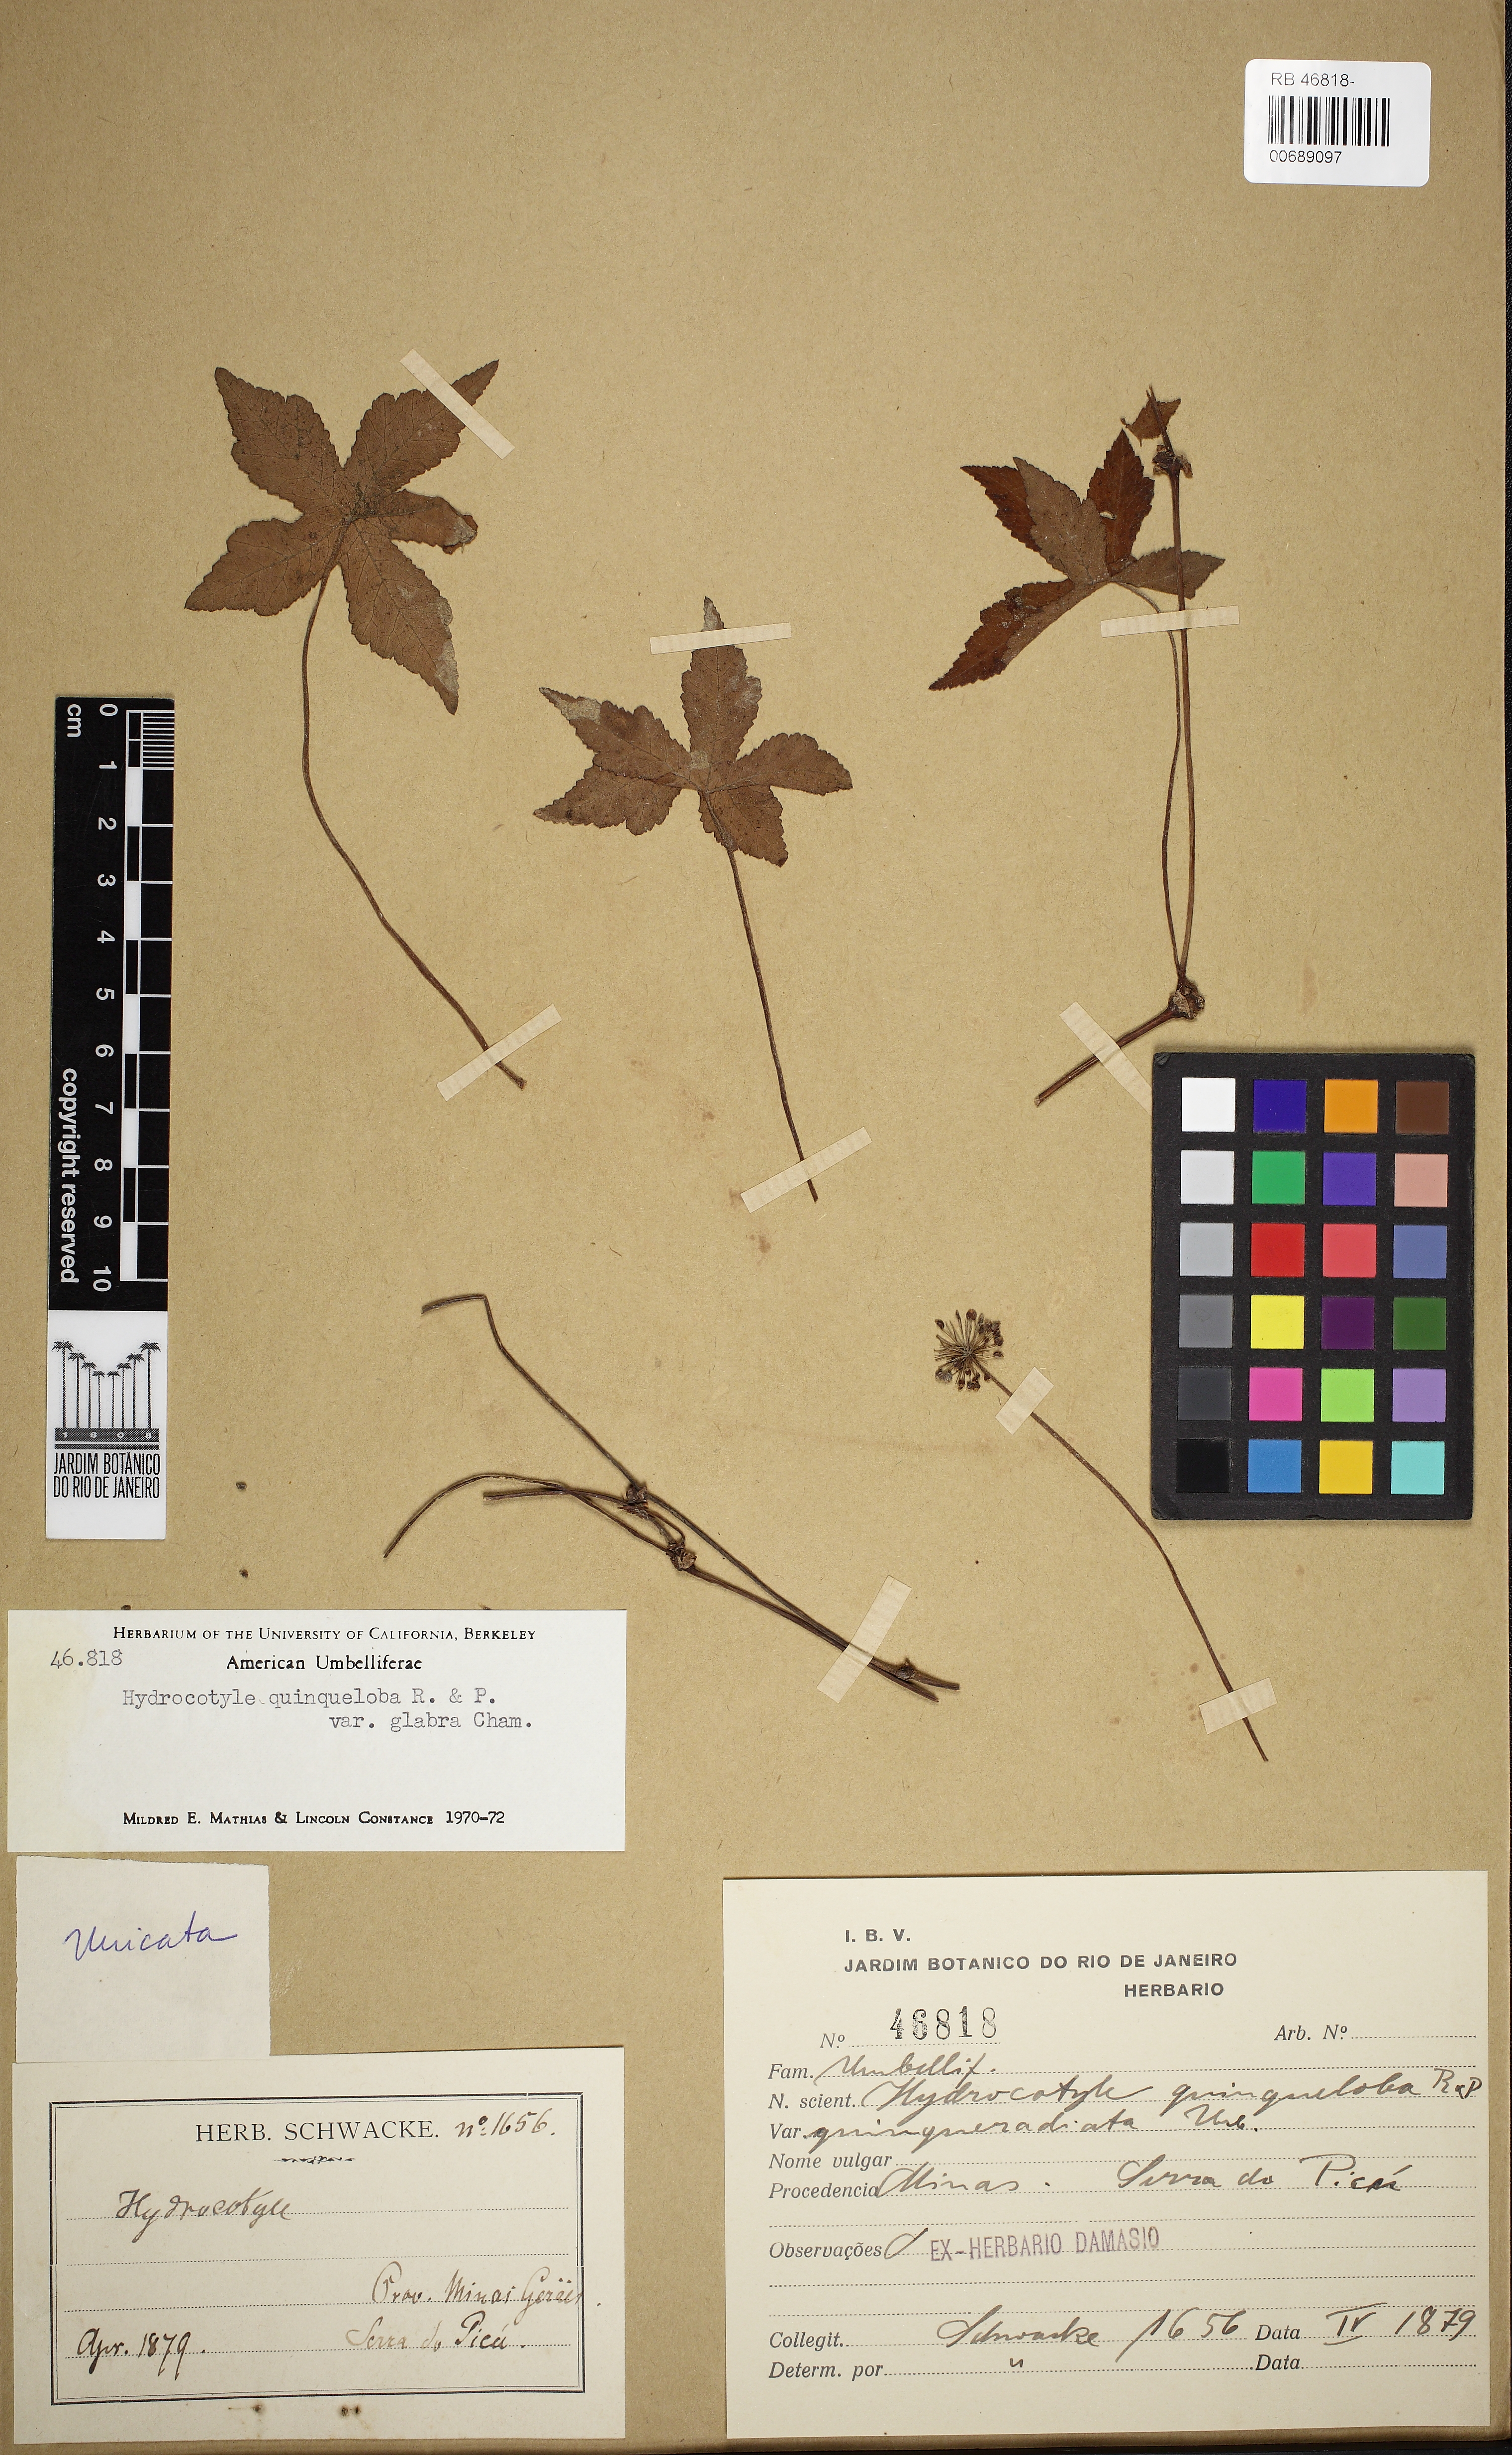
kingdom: Plantae
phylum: Tracheophyta
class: Magnoliopsida
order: Apiales
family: Araliaceae
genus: Hydrocotyle
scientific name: Hydrocotyle quinqueloba
